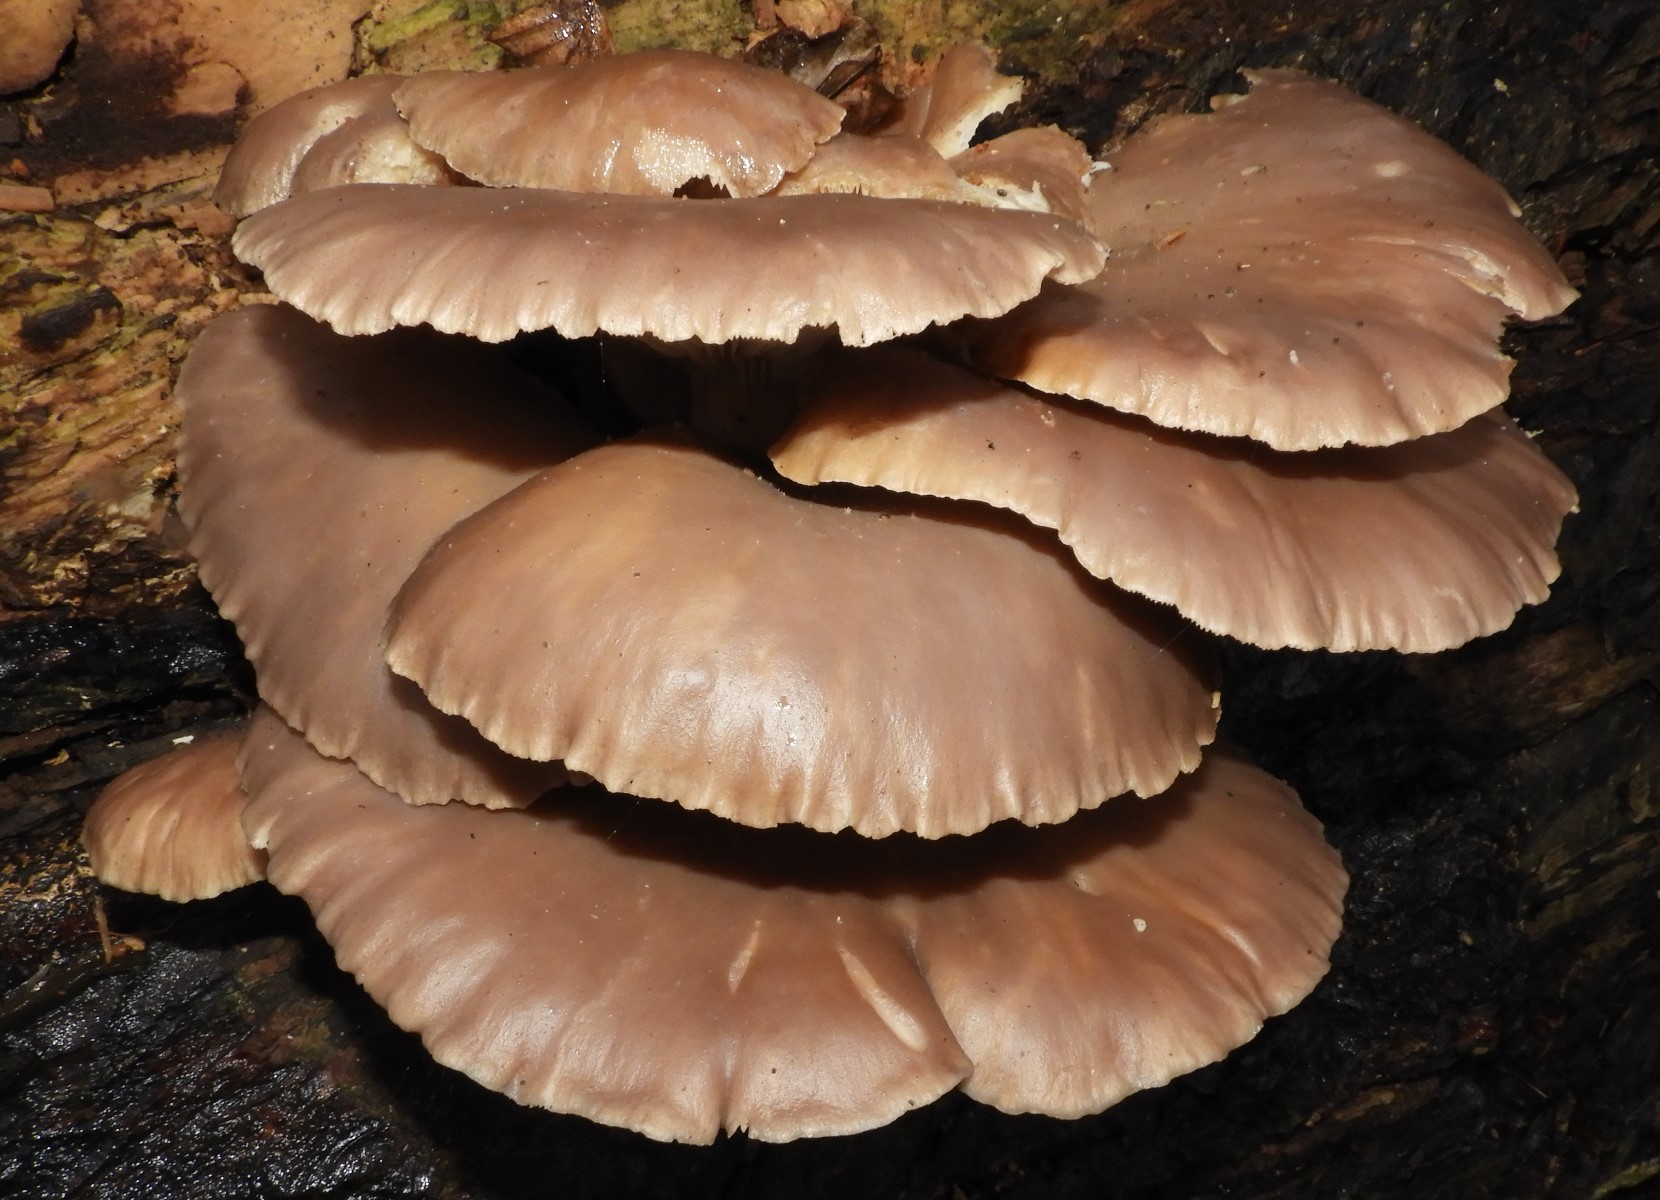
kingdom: Fungi
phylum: Basidiomycota
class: Agaricomycetes
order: Agaricales
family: Pleurotaceae
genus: Pleurotus
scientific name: Pleurotus ostreatus
